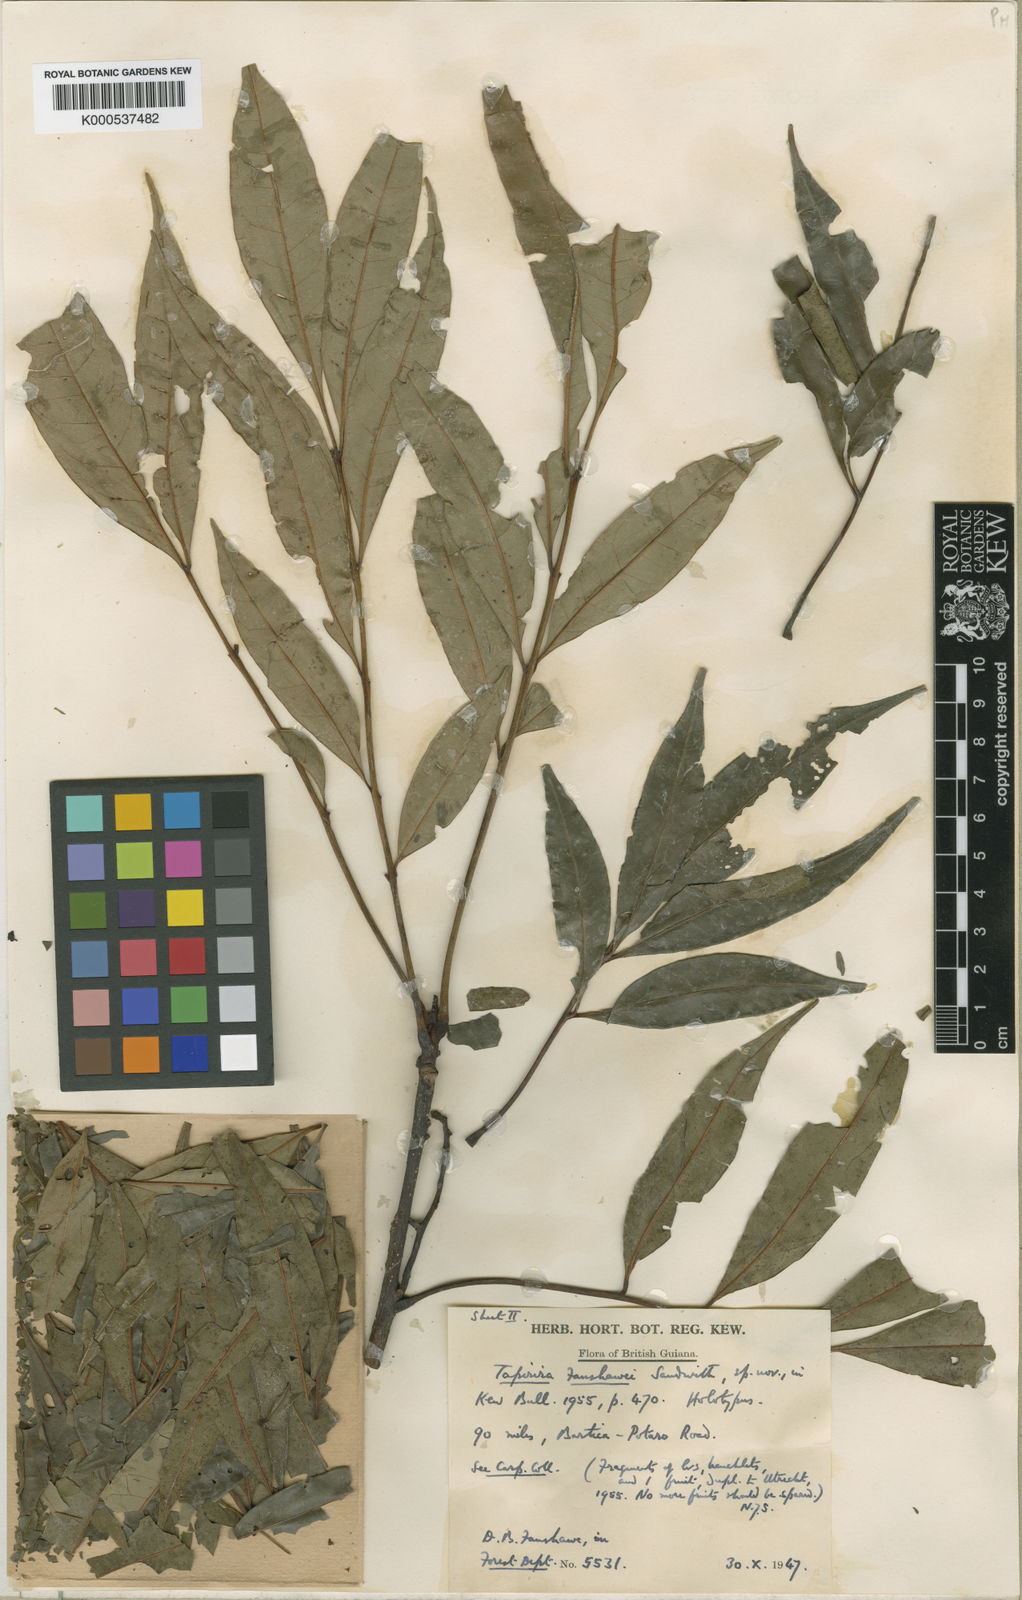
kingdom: Plantae
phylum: Tracheophyta
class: Magnoliopsida
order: Sapindales
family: Anacardiaceae
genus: Tapirira
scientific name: Tapirira guianensis
